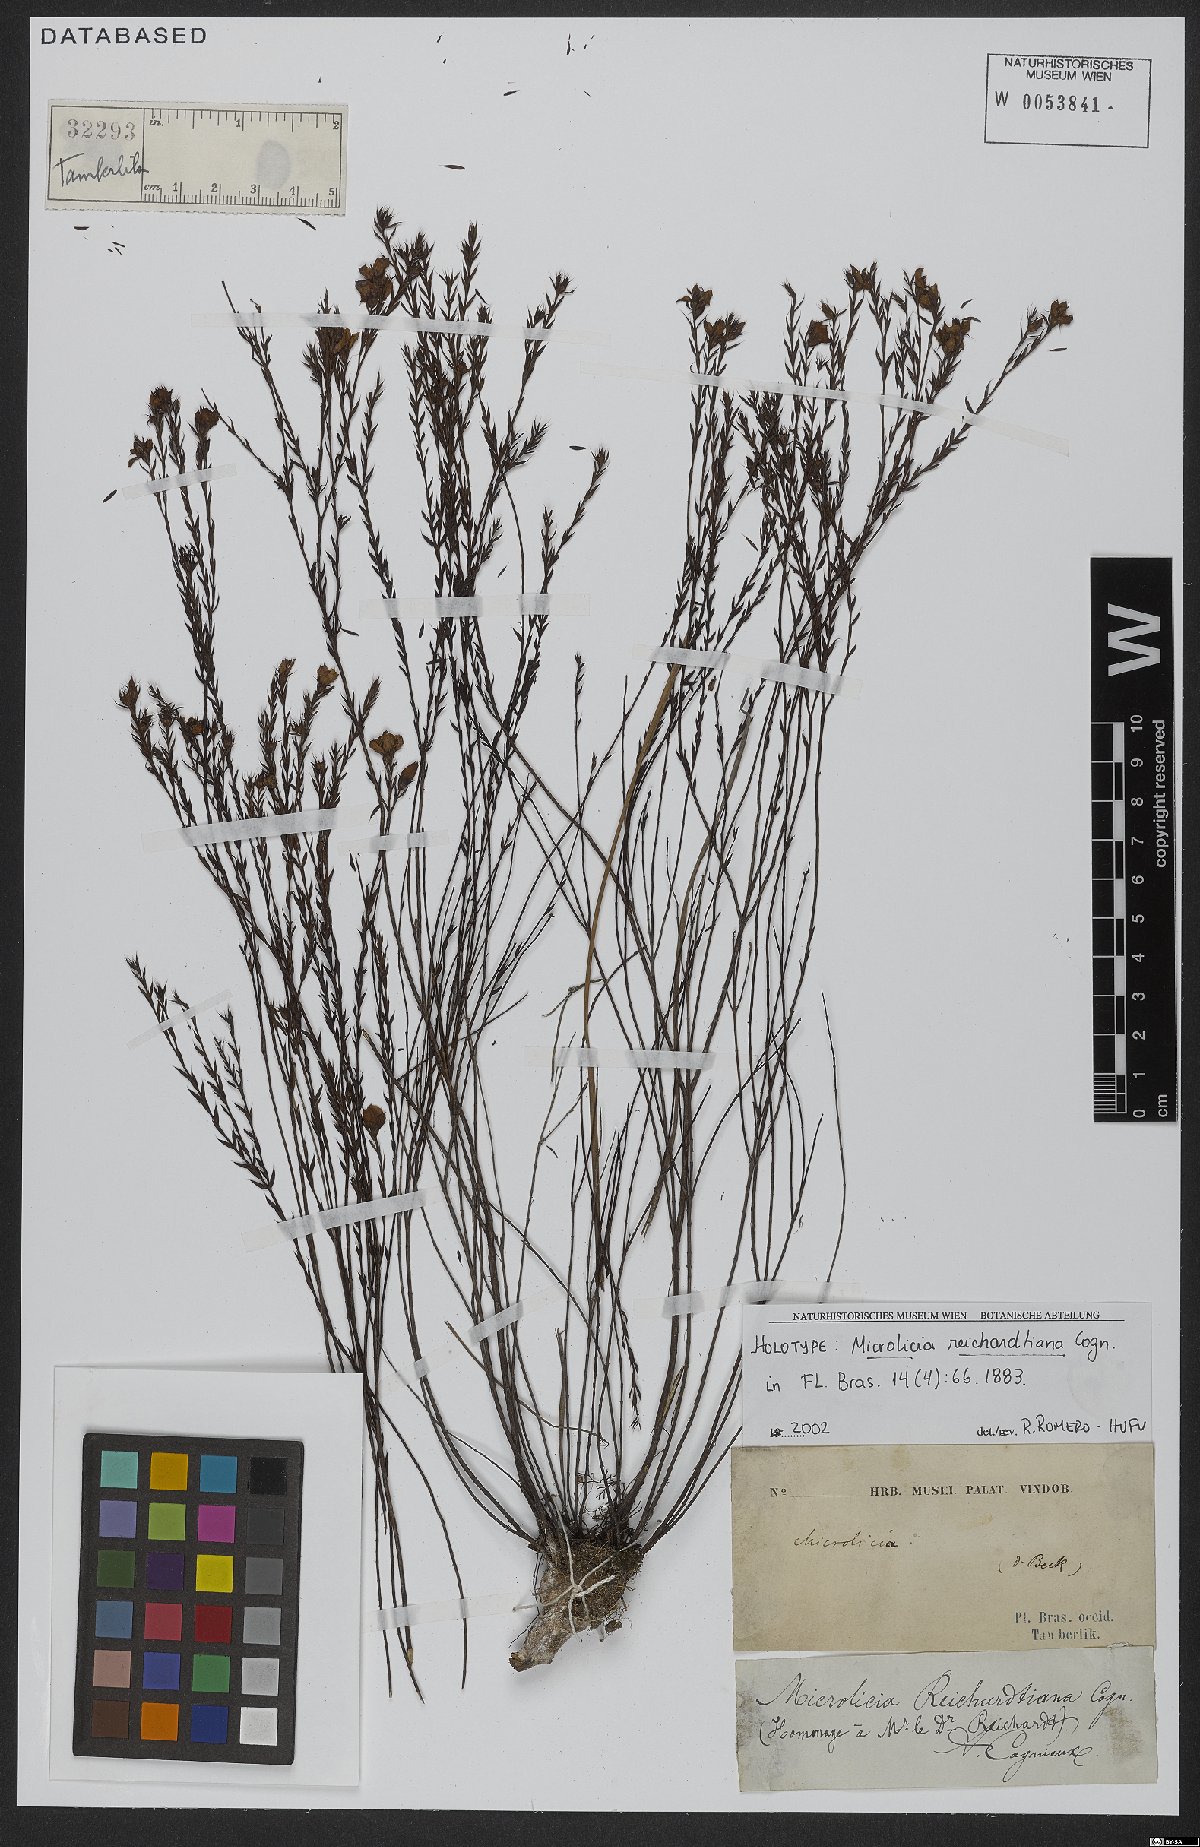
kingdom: Plantae
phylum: Tracheophyta
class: Magnoliopsida
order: Myrtales
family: Melastomataceae
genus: Microlicia
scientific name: Microlicia setosa
